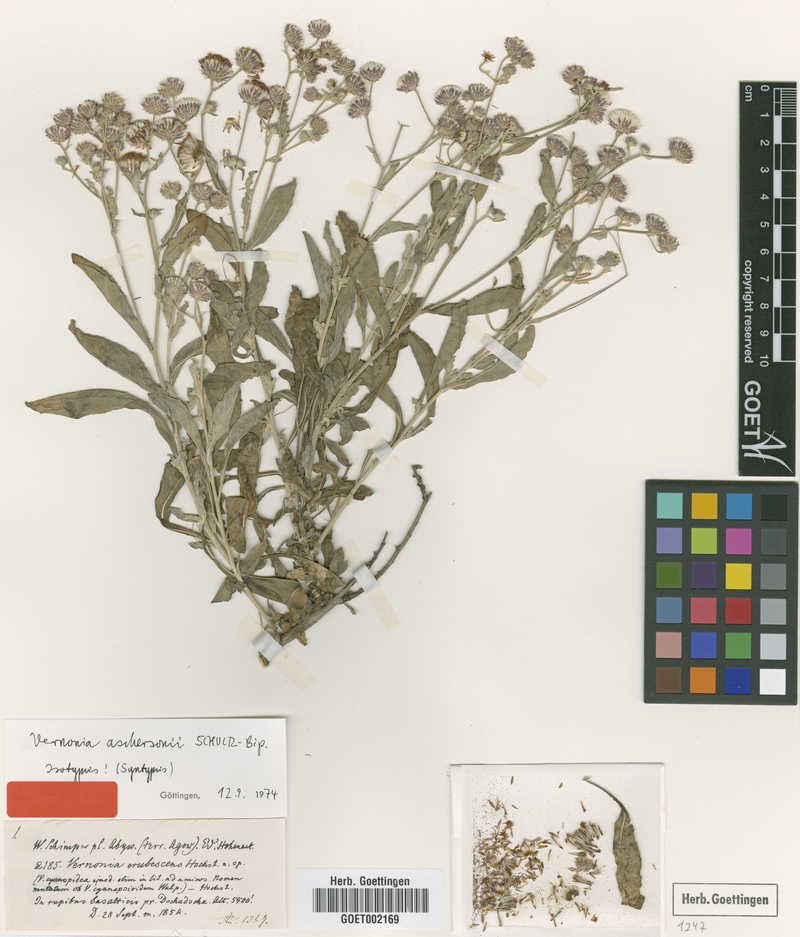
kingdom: Plantae
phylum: Tracheophyta
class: Magnoliopsida
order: Asterales
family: Asteraceae
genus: Vernonia
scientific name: Vernonia aschersonii
